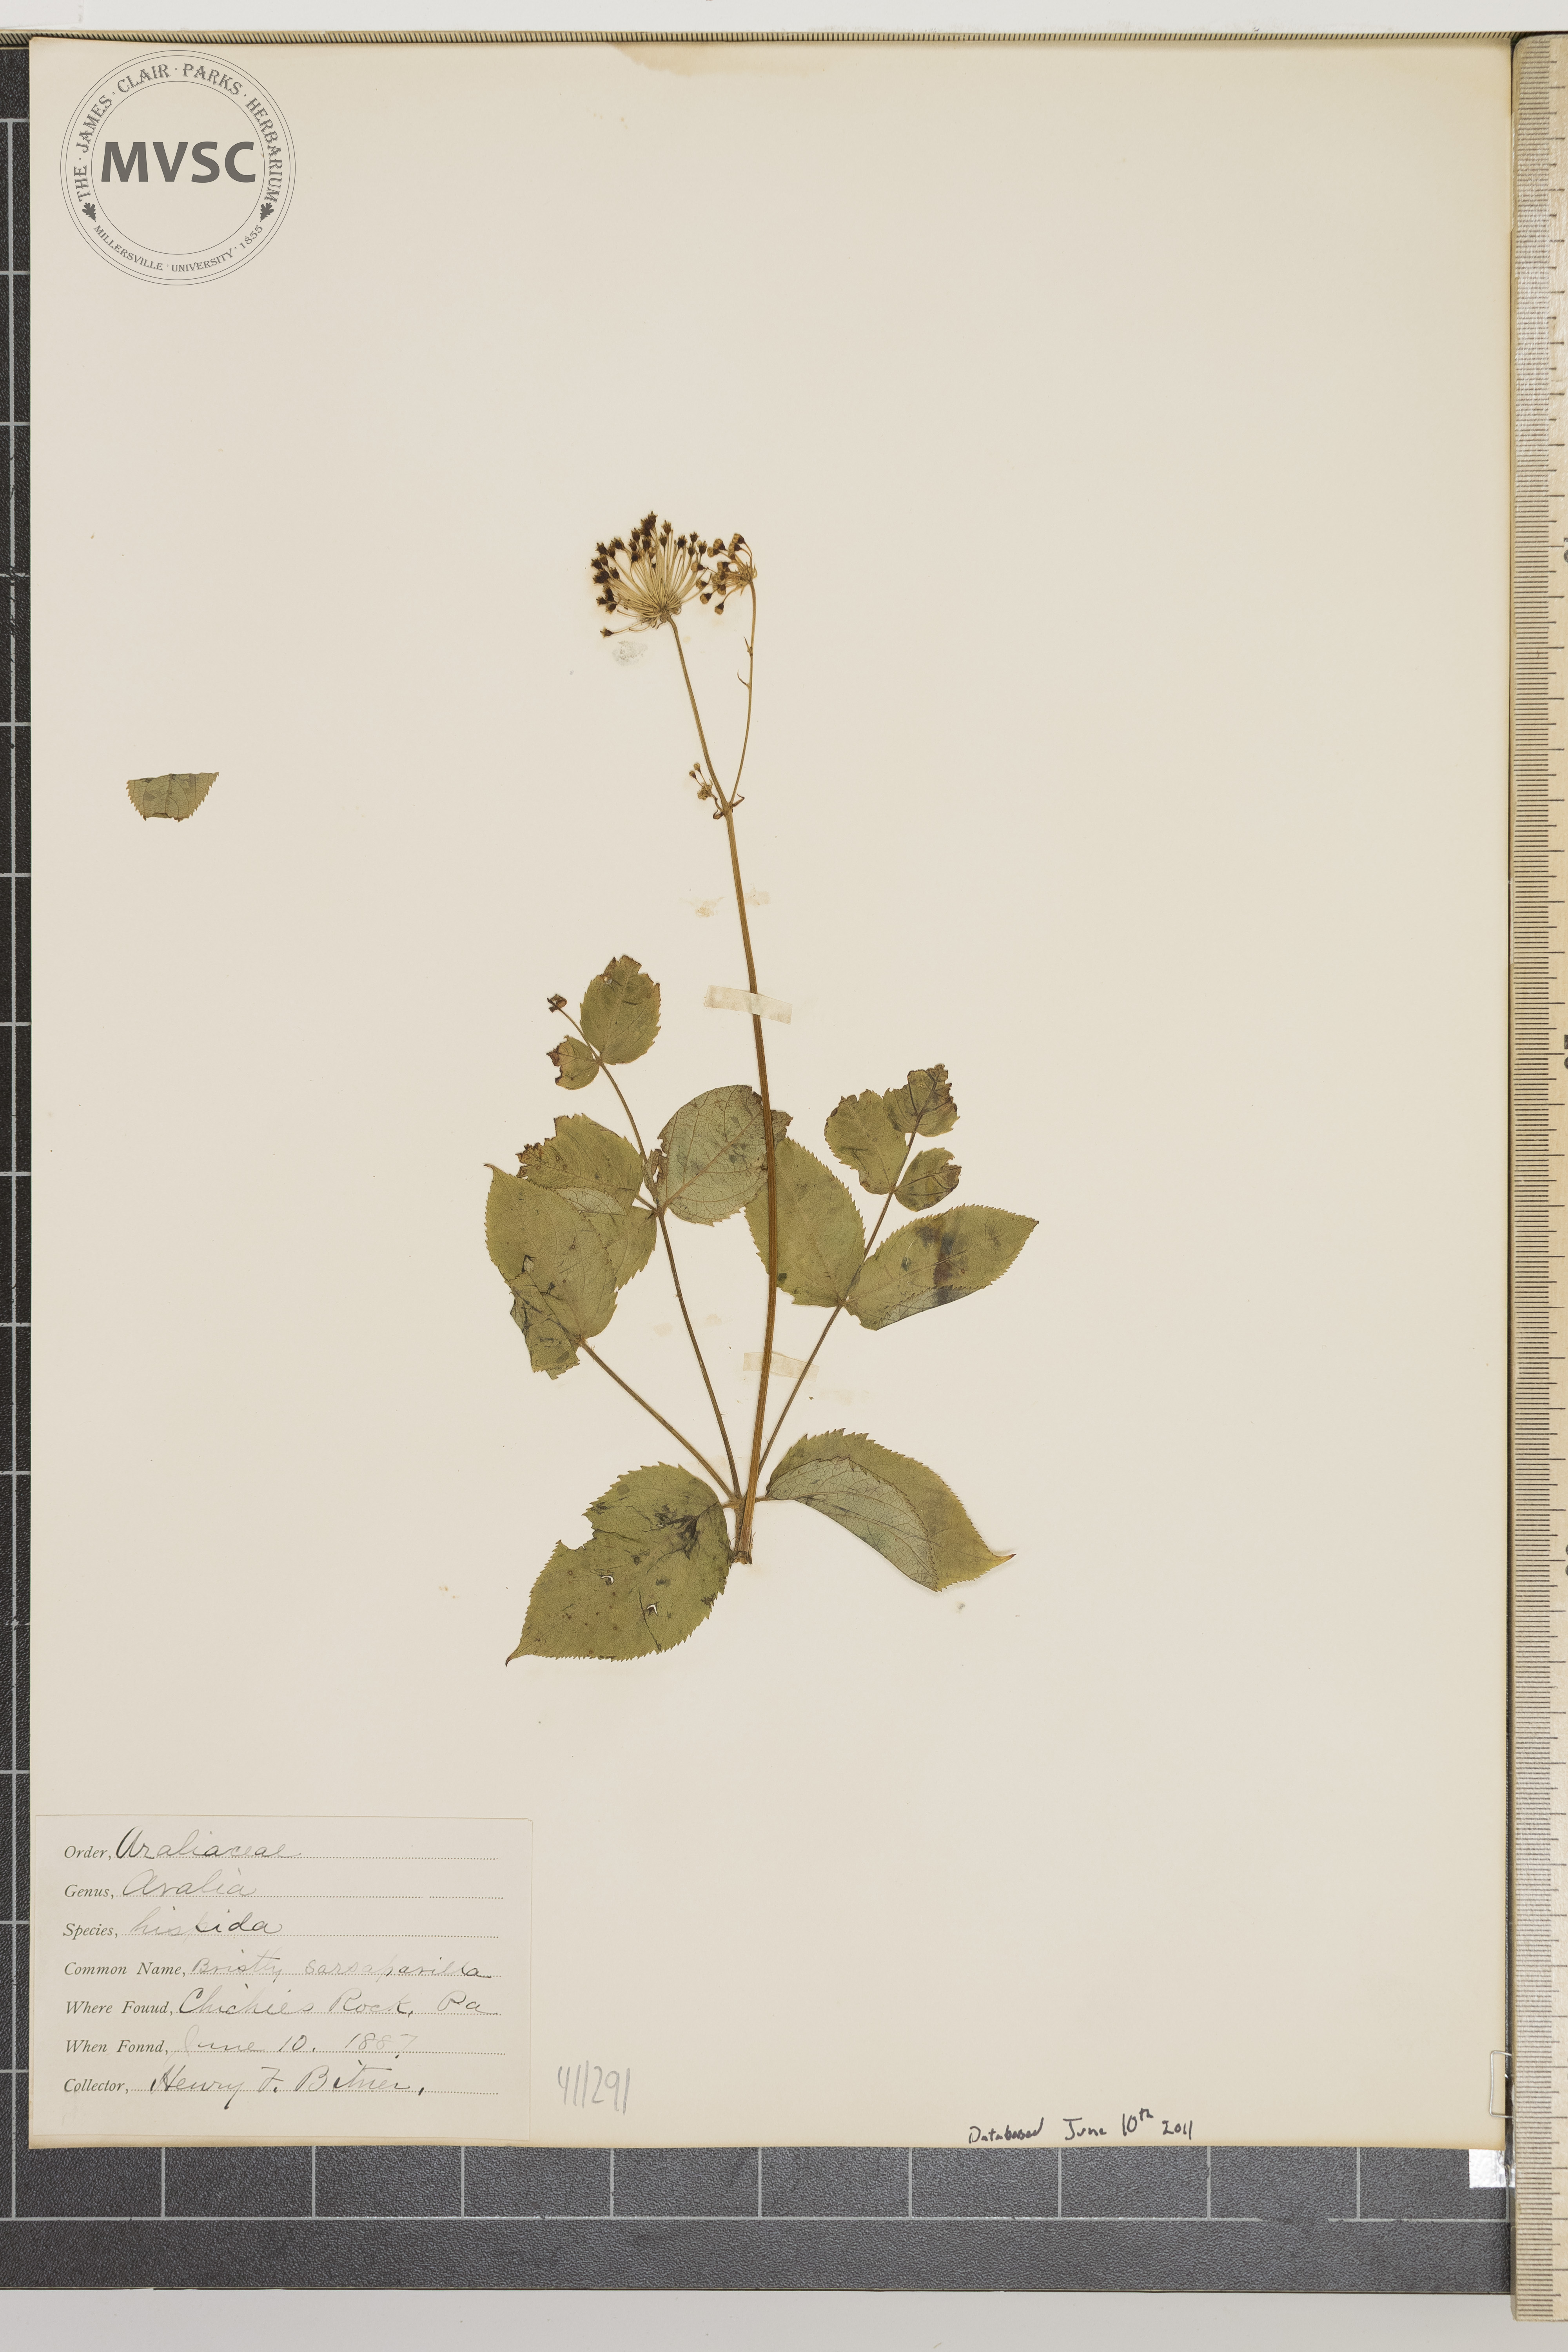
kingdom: Plantae
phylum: Tracheophyta
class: Magnoliopsida
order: Apiales
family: Araliaceae
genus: Aralia
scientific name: Aralia hispida
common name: Bristly sarsaparilla
